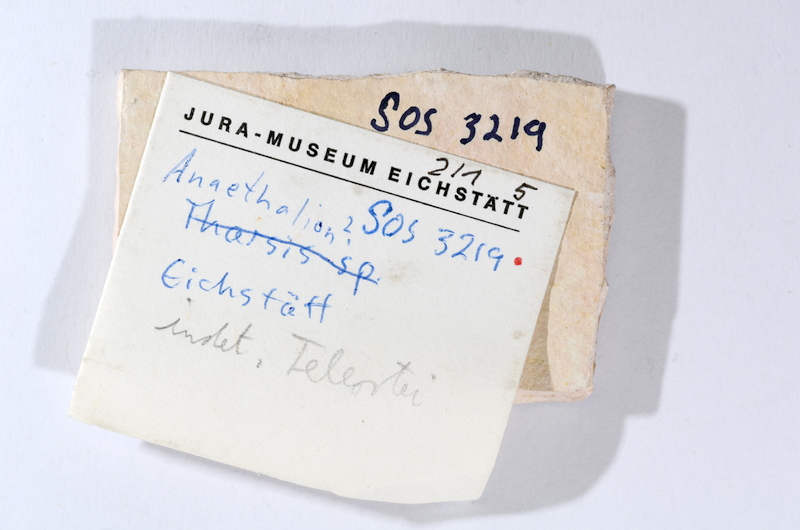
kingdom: Animalia
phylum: Chordata
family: Ascalaboidae
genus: Tharsis
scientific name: Tharsis dubius
